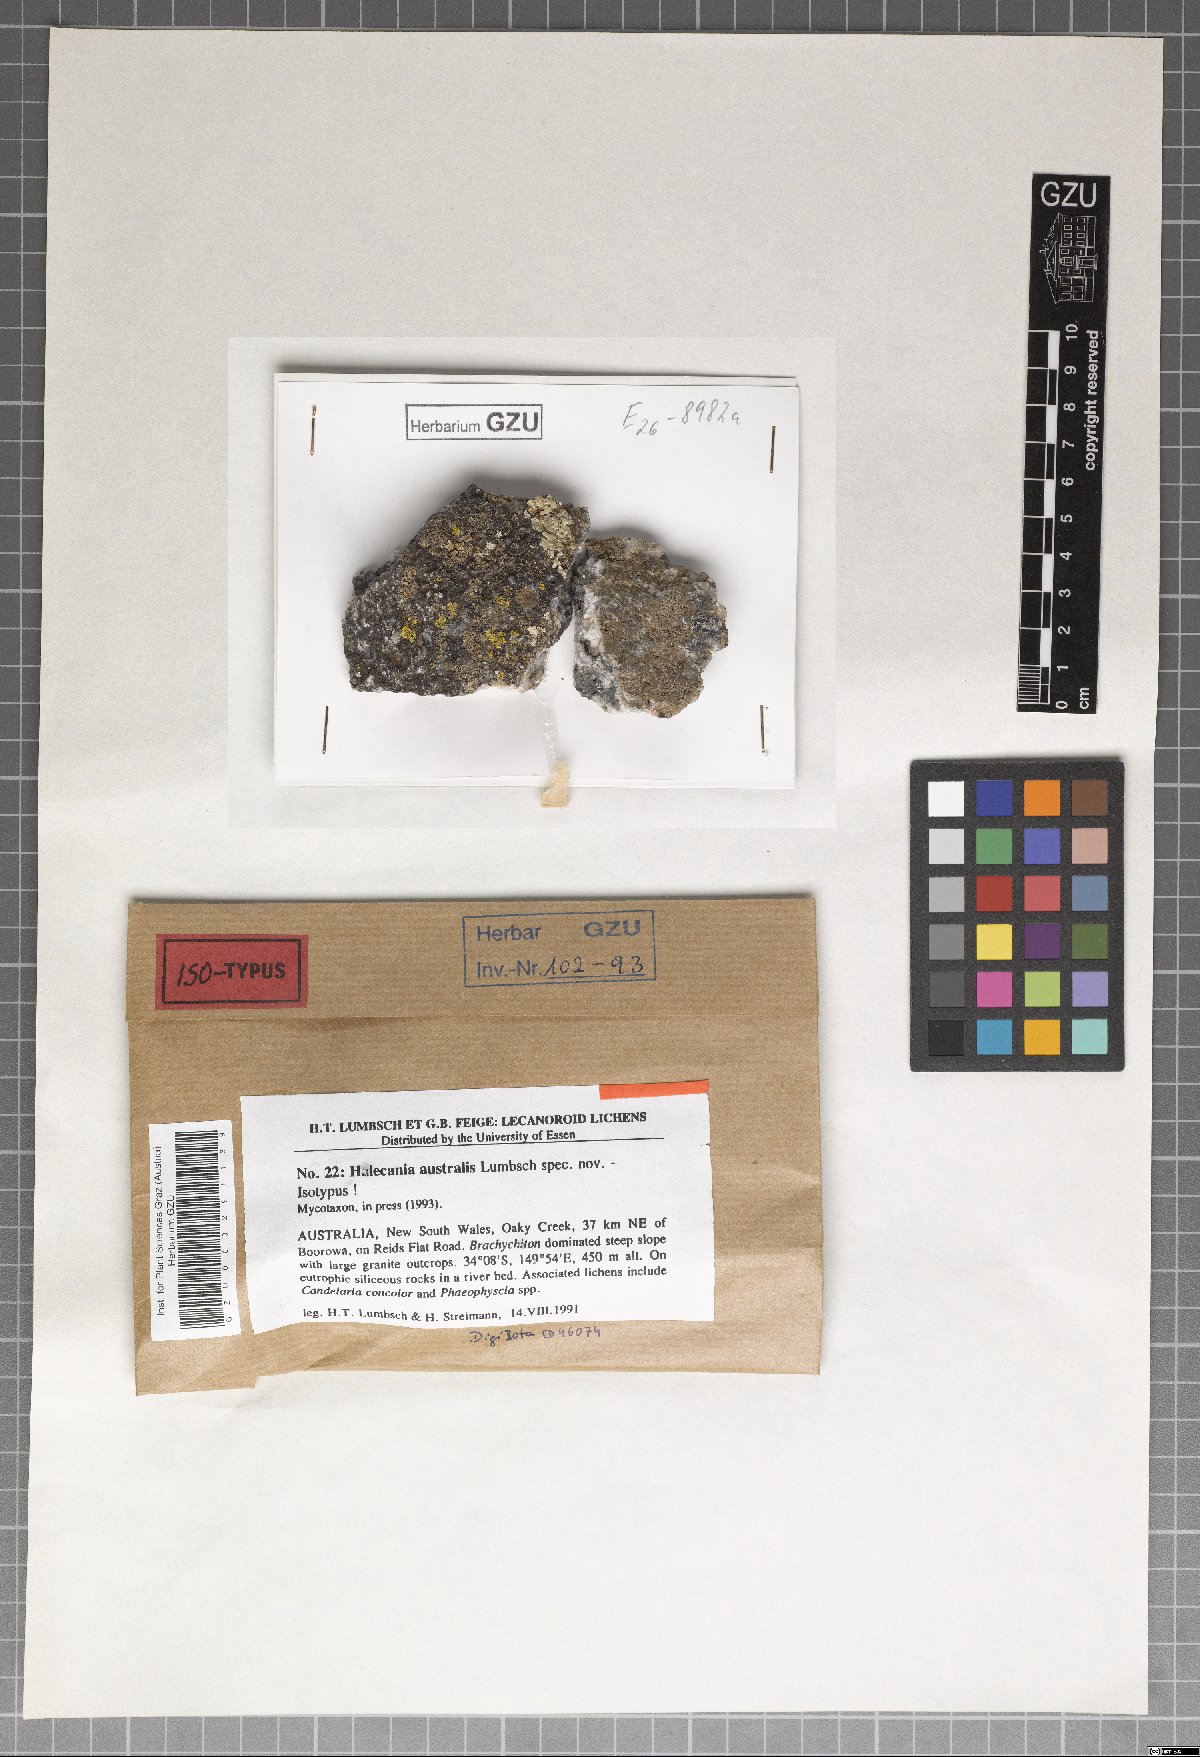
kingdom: Fungi
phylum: Ascomycota
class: Lecanoromycetes
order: Teloschistales
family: Leprocaulaceae
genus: Halecania
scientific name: Halecania australis
